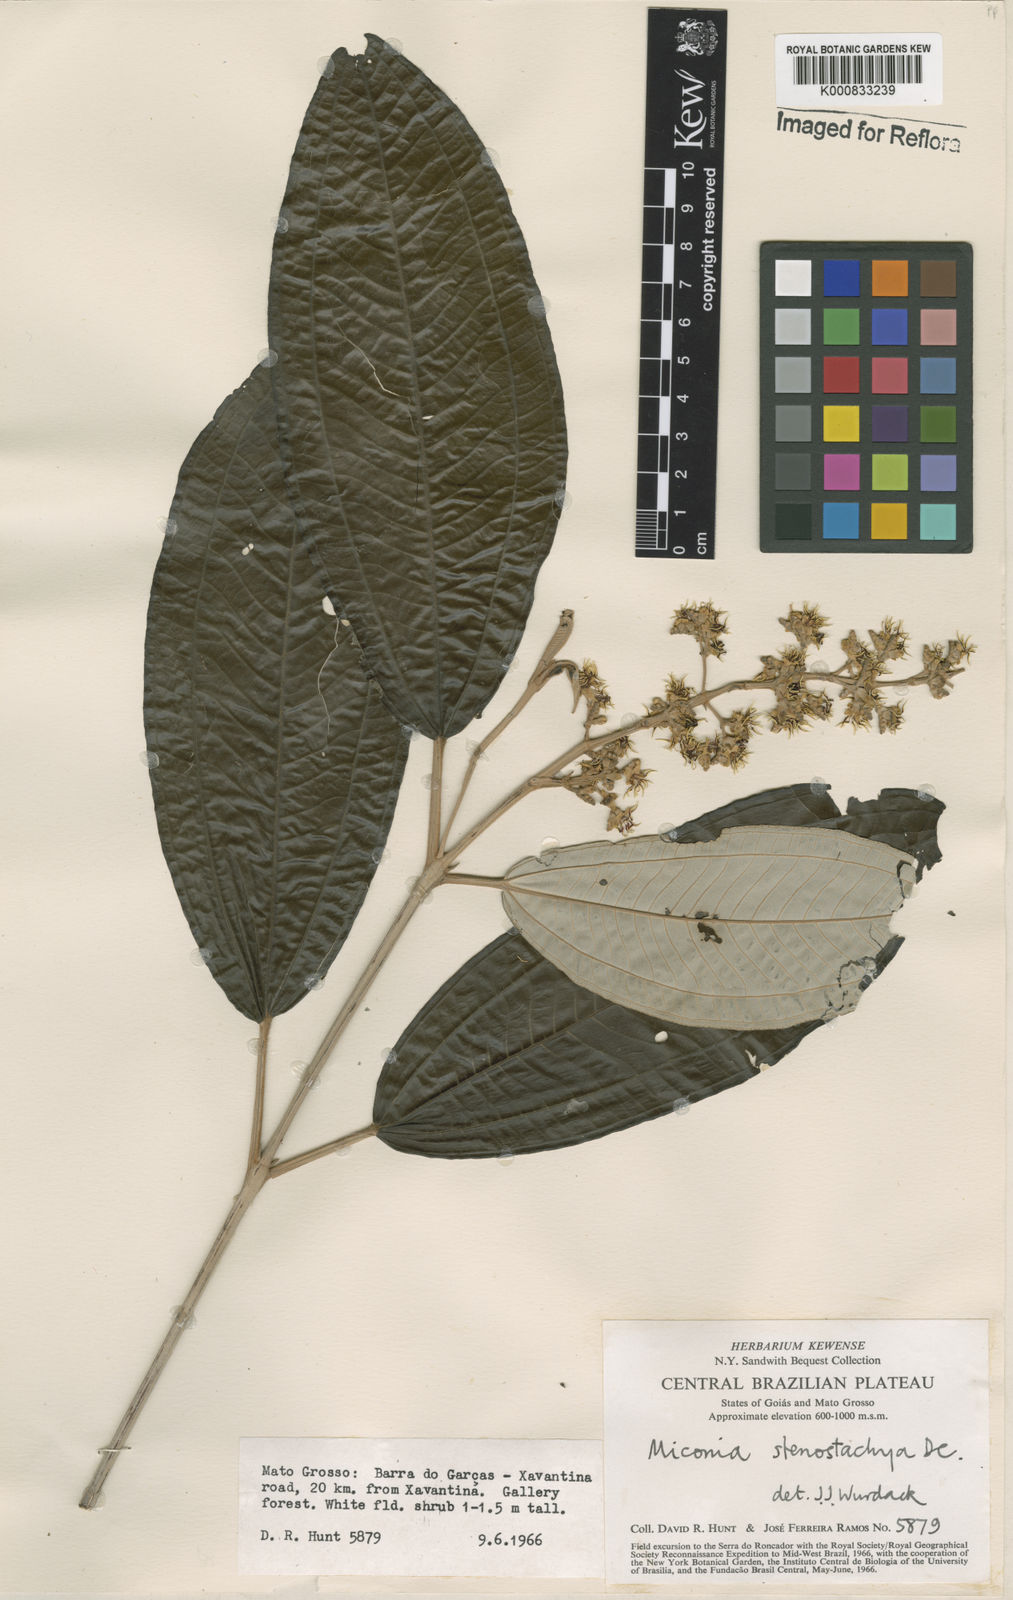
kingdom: Plantae
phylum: Tracheophyta
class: Magnoliopsida
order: Myrtales
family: Melastomataceae
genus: Miconia
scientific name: Miconia stenostachya
